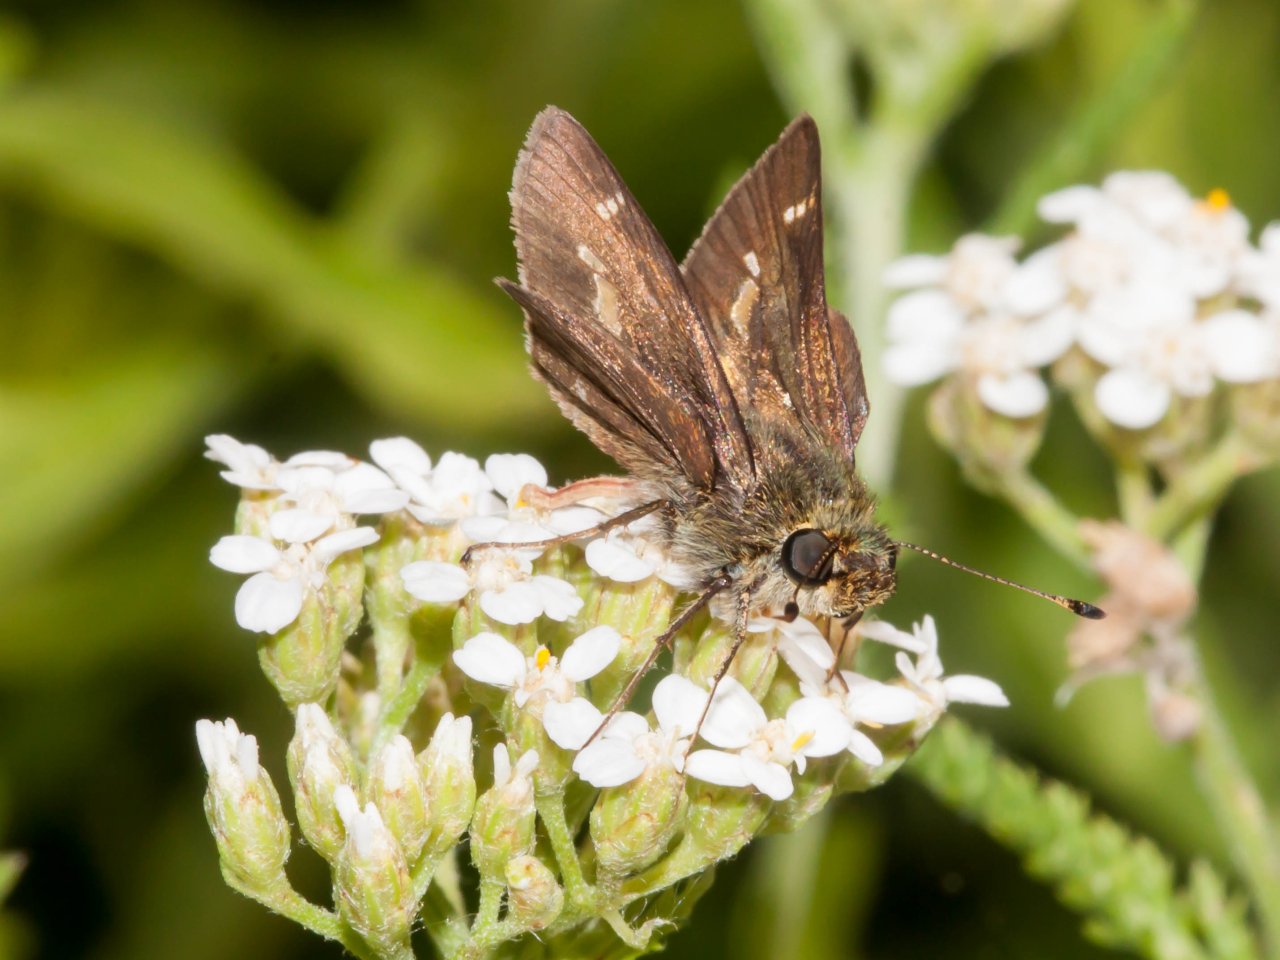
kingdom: Animalia
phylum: Arthropoda
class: Insecta
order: Lepidoptera
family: Hesperiidae
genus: Vernia
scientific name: Vernia verna
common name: Little Glassywing
